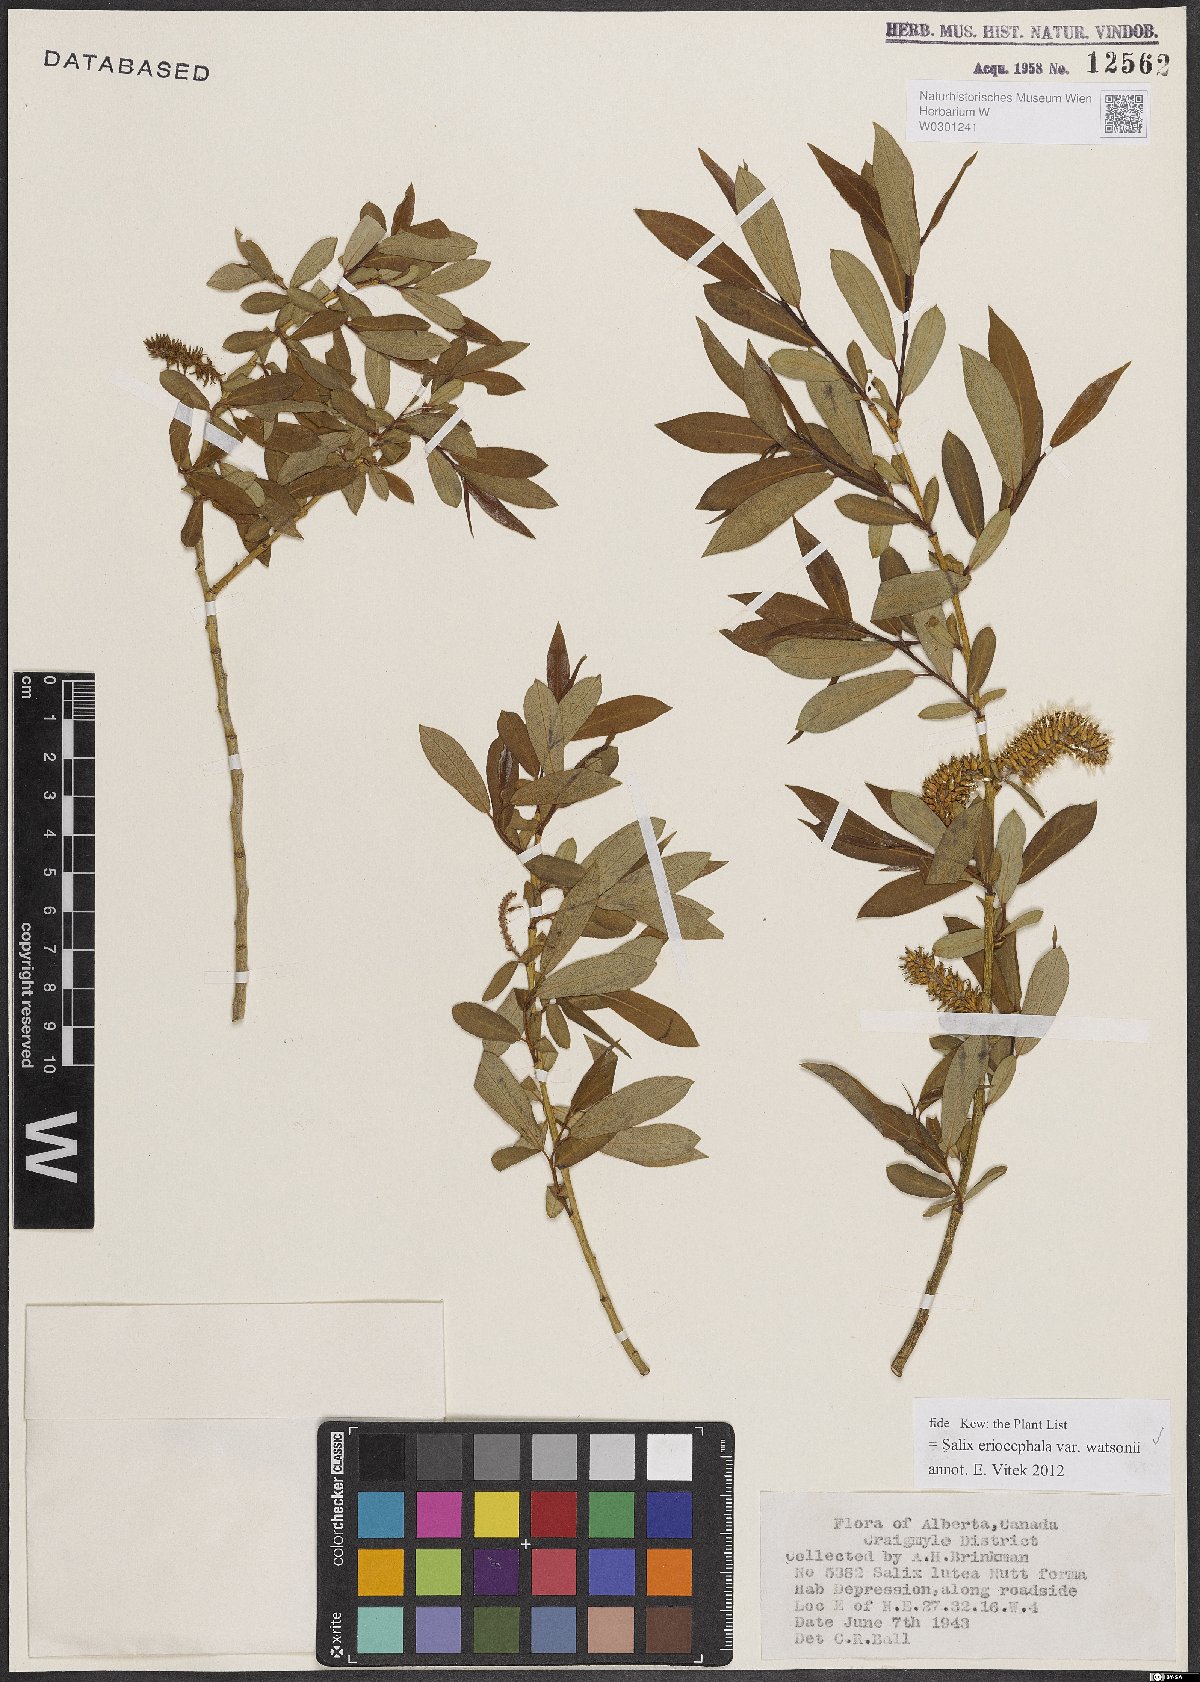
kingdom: Plantae
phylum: Tracheophyta
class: Magnoliopsida
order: Malpighiales
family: Salicaceae
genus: Salix
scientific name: Salix lutea
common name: Yellow willow
